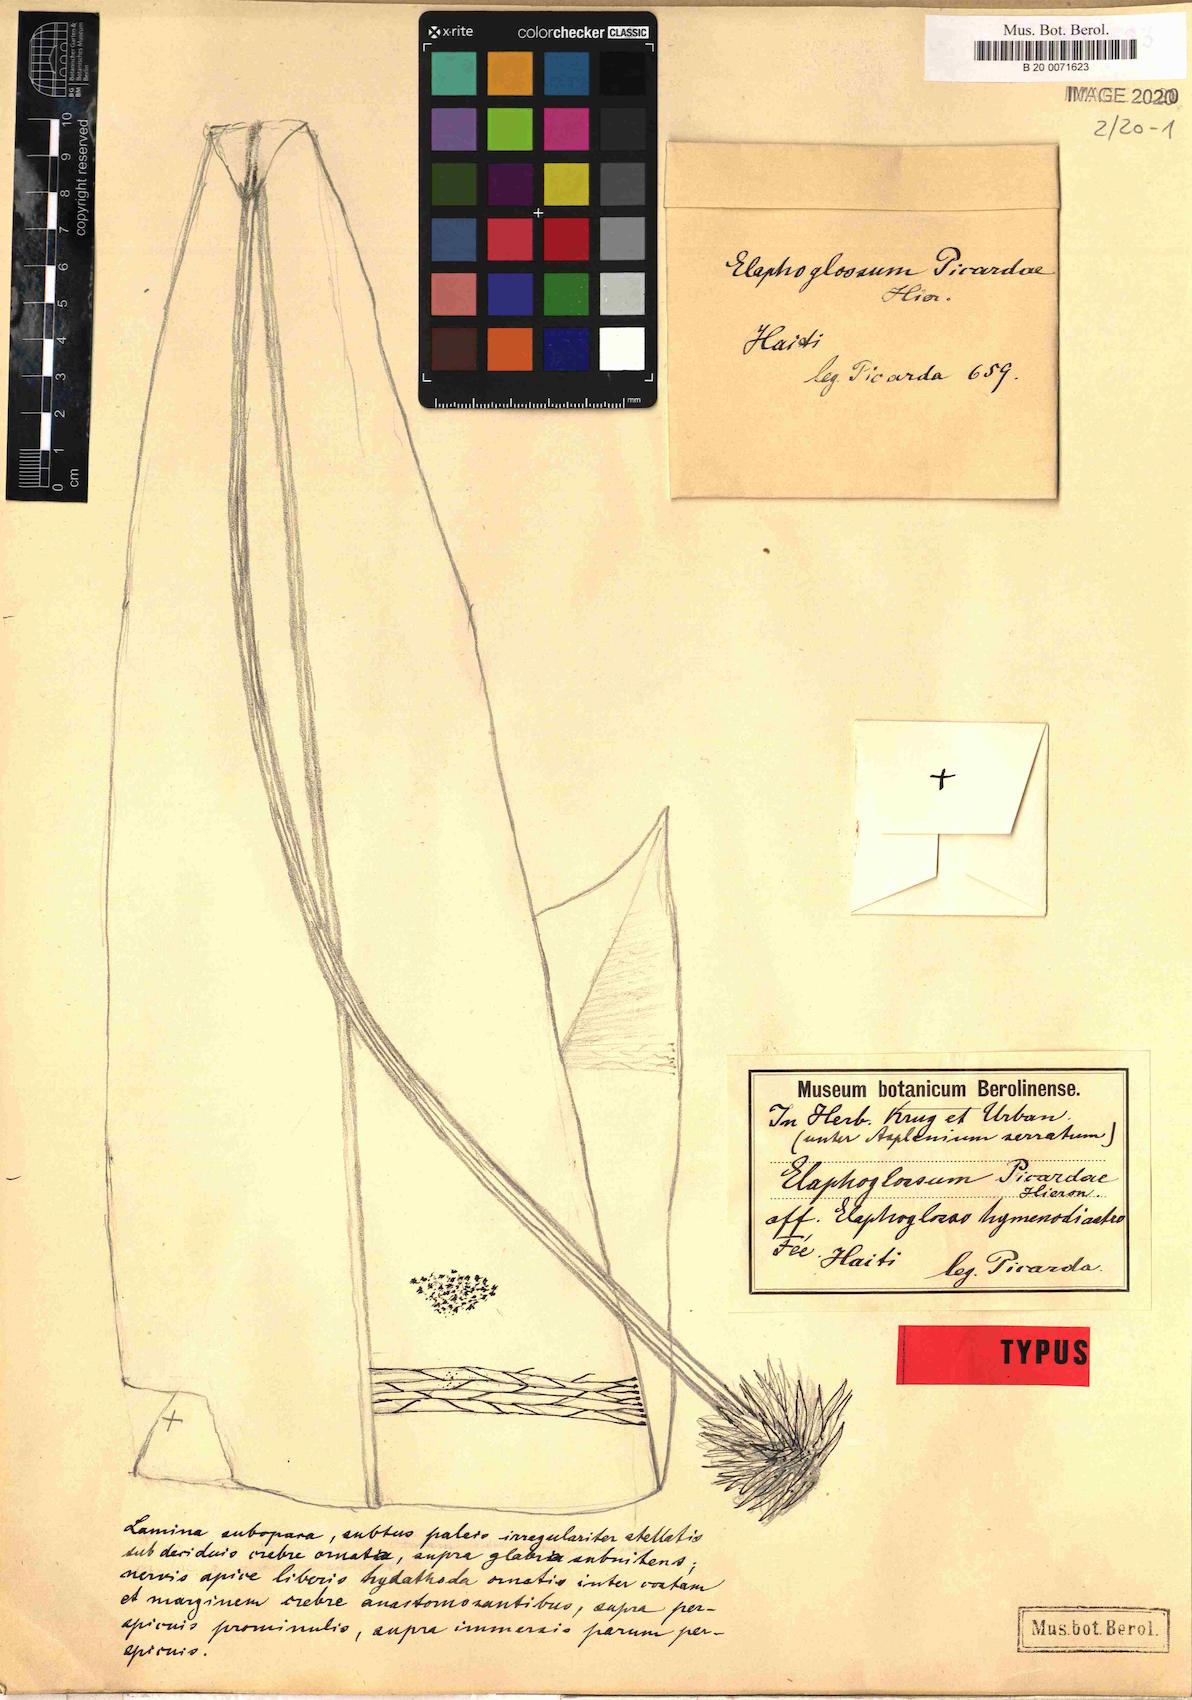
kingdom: Plantae
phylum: Tracheophyta
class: Polypodiopsida
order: Polypodiales
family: Dryopteridaceae
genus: Elaphoglossum
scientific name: Elaphoglossum picardae
